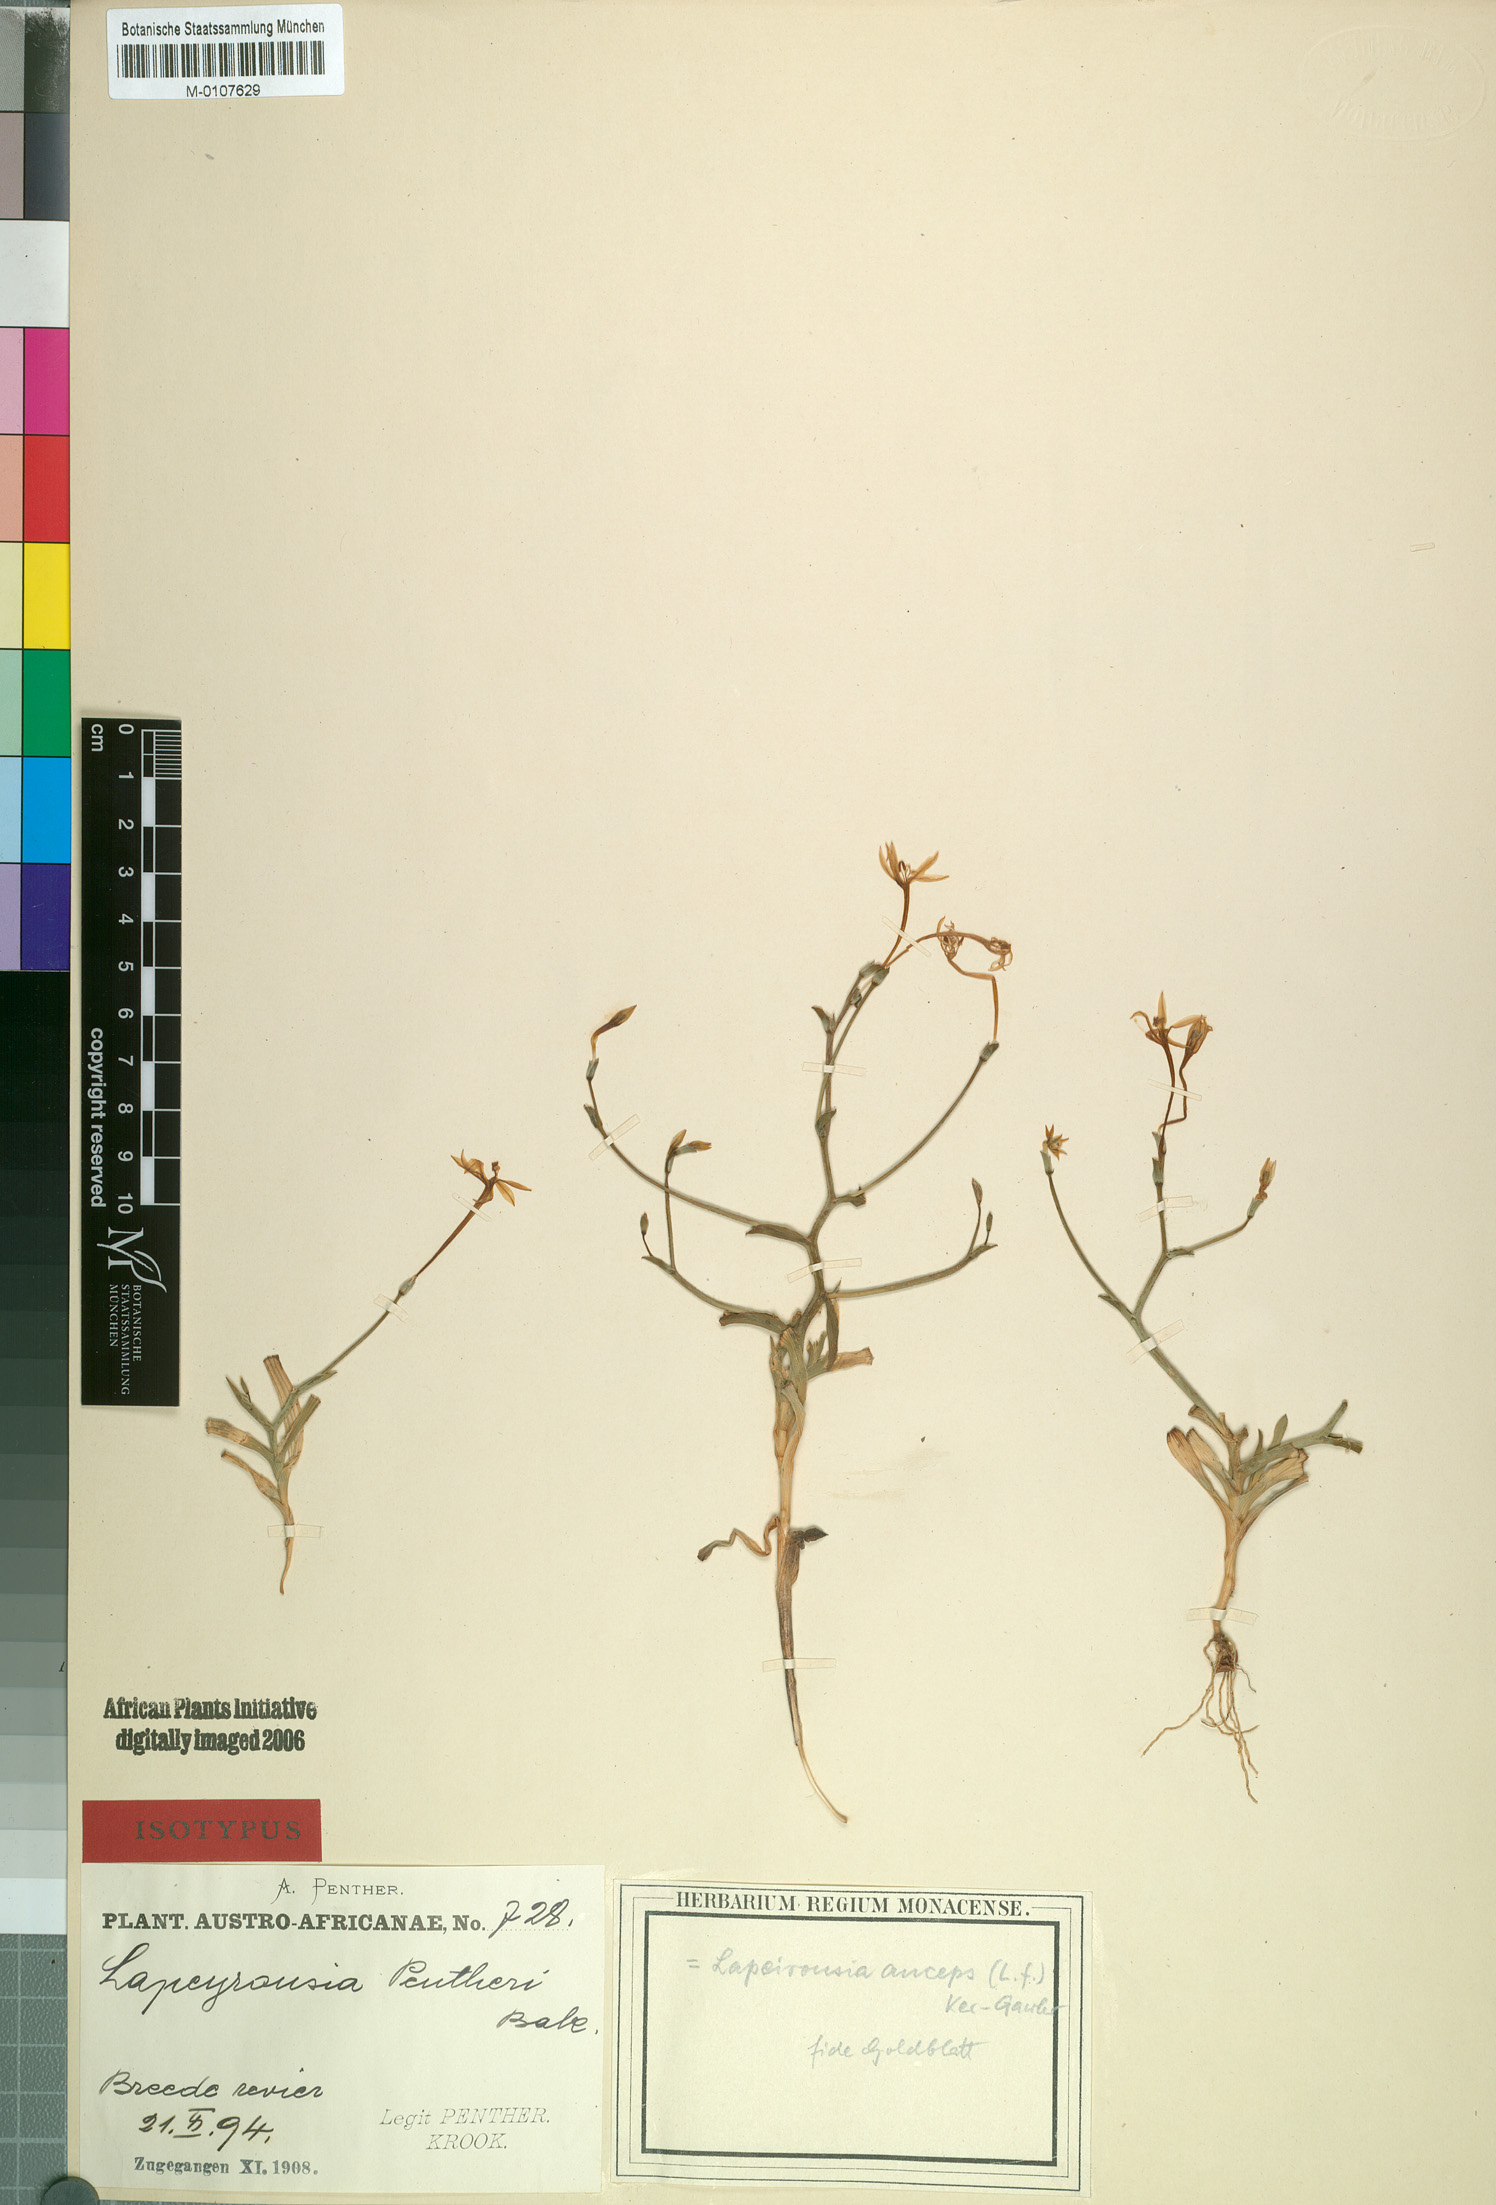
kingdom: Plantae
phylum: Tracheophyta
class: Liliopsida
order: Asparagales
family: Iridaceae
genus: Lapeirousia
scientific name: Lapeirousia anceps
